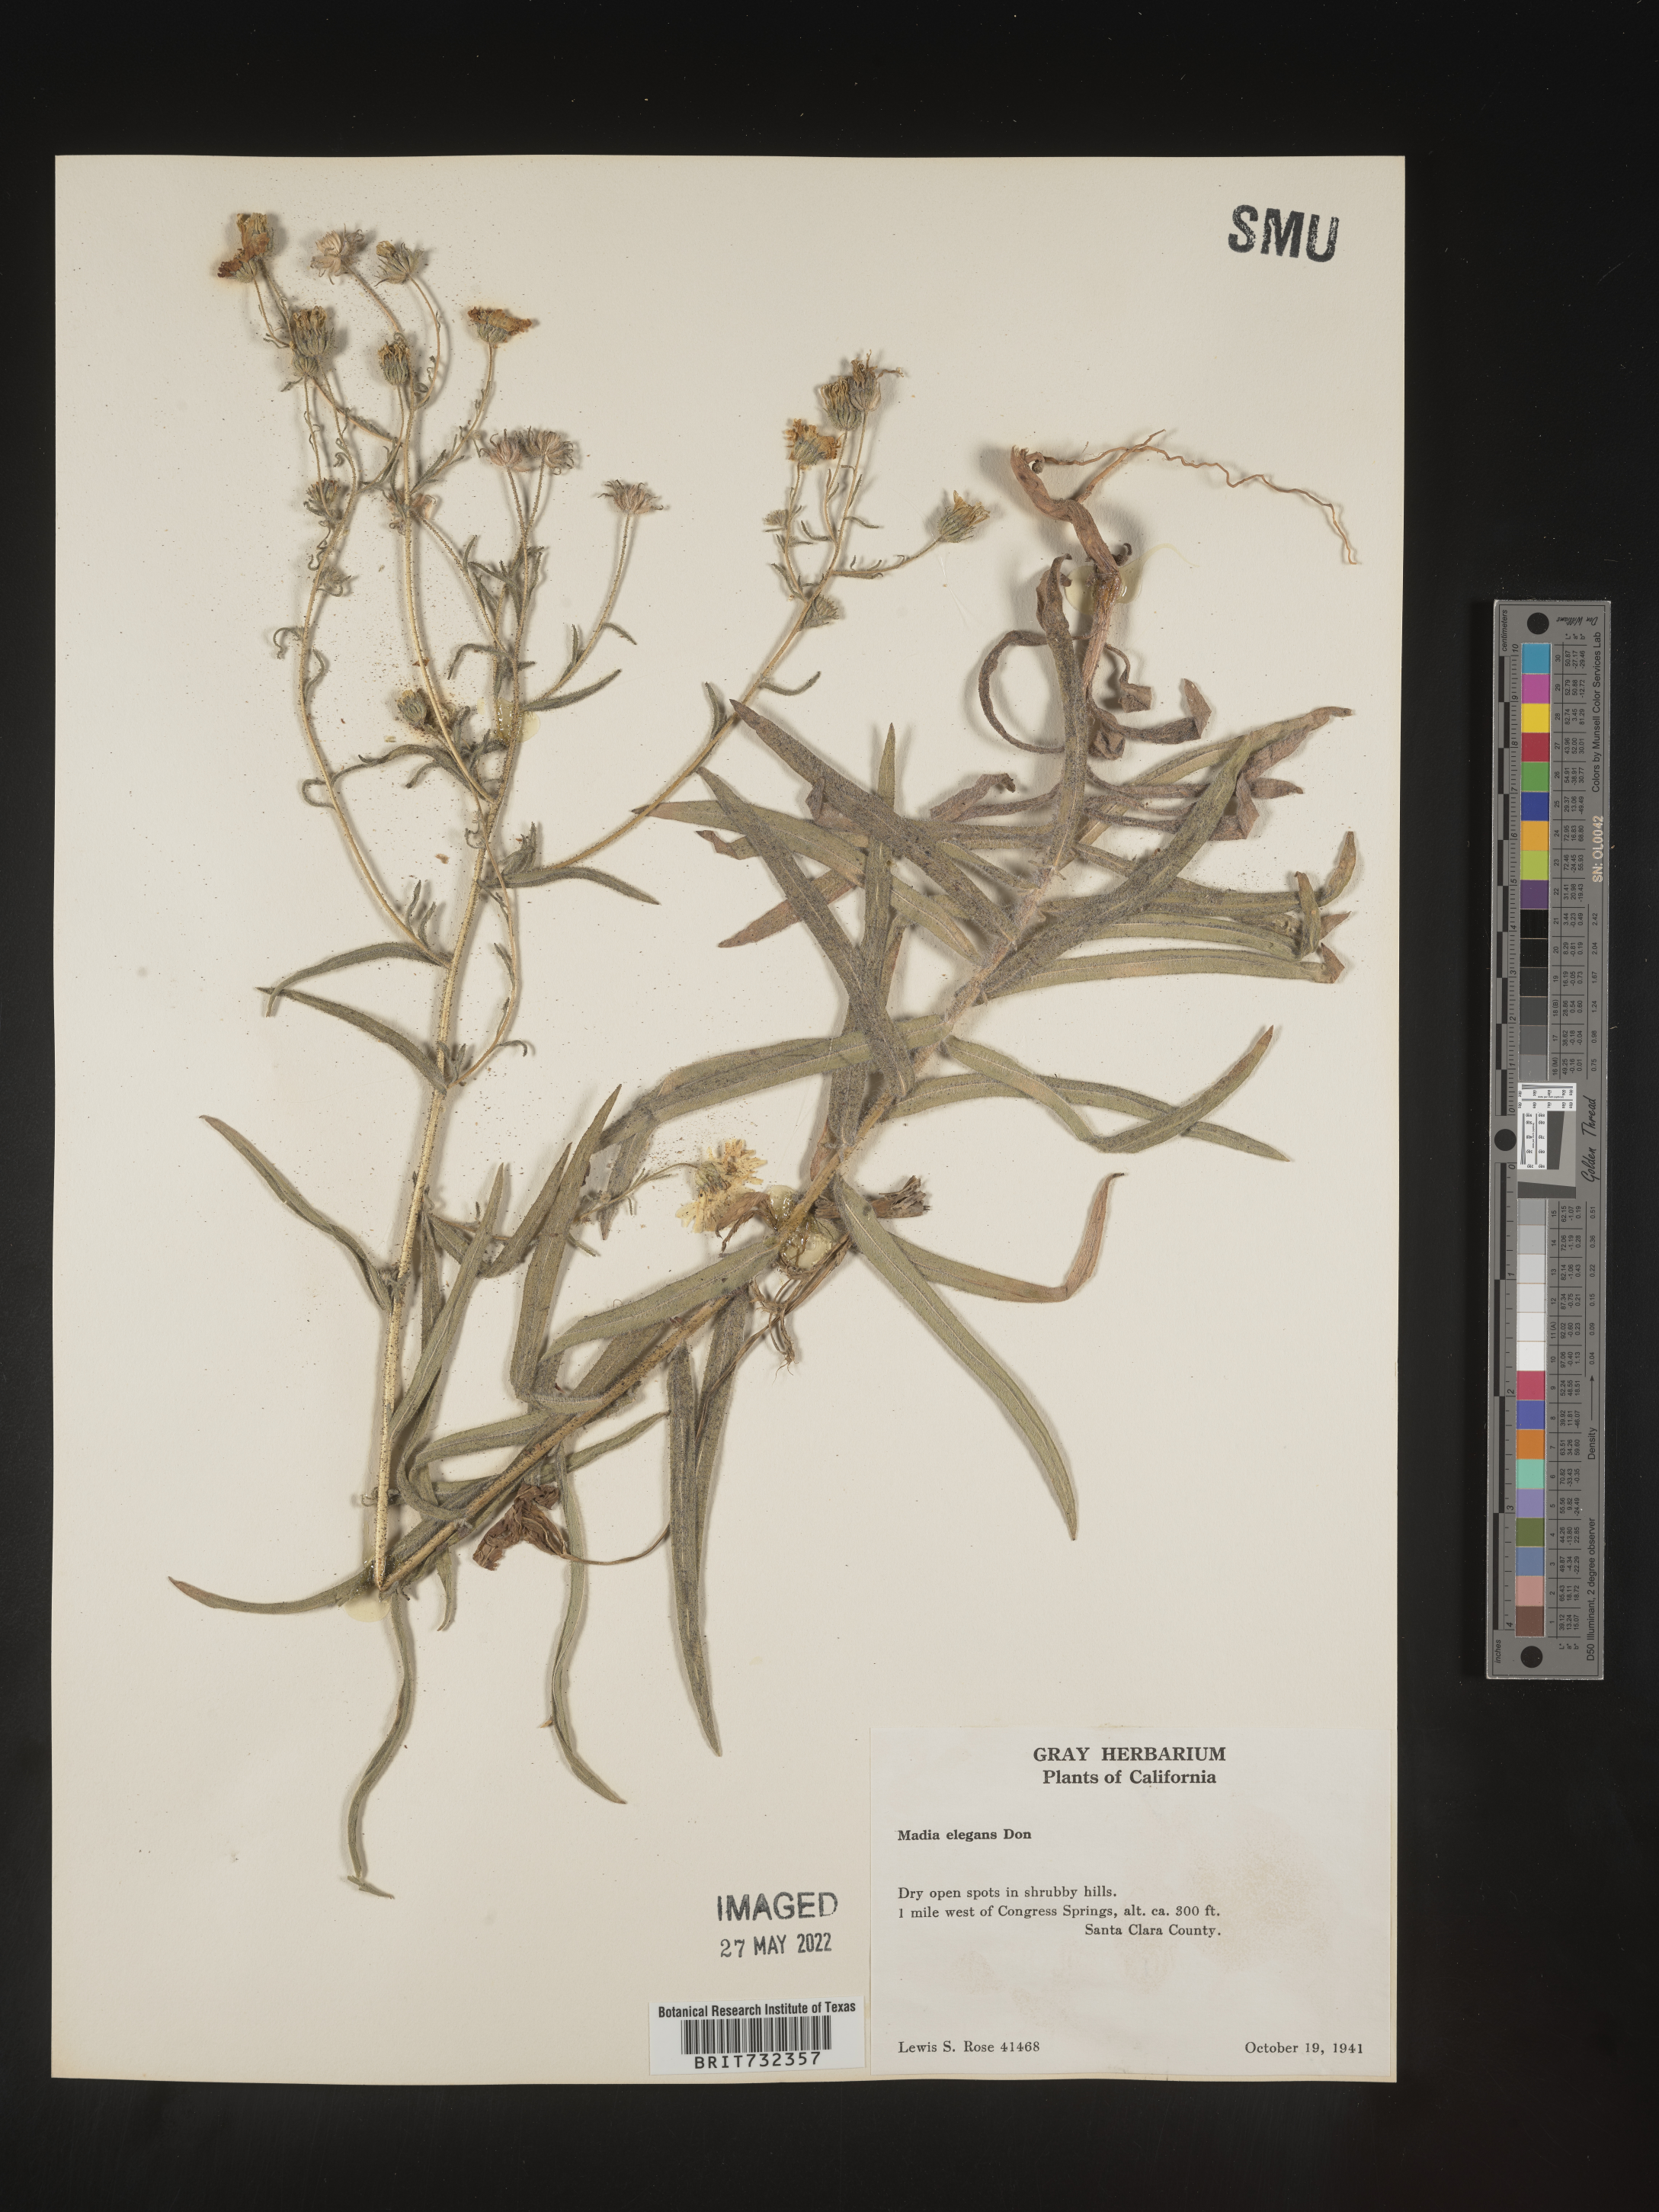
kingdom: Plantae
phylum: Tracheophyta
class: Magnoliopsida
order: Asterales
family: Asteraceae
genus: Madia
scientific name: Madia
